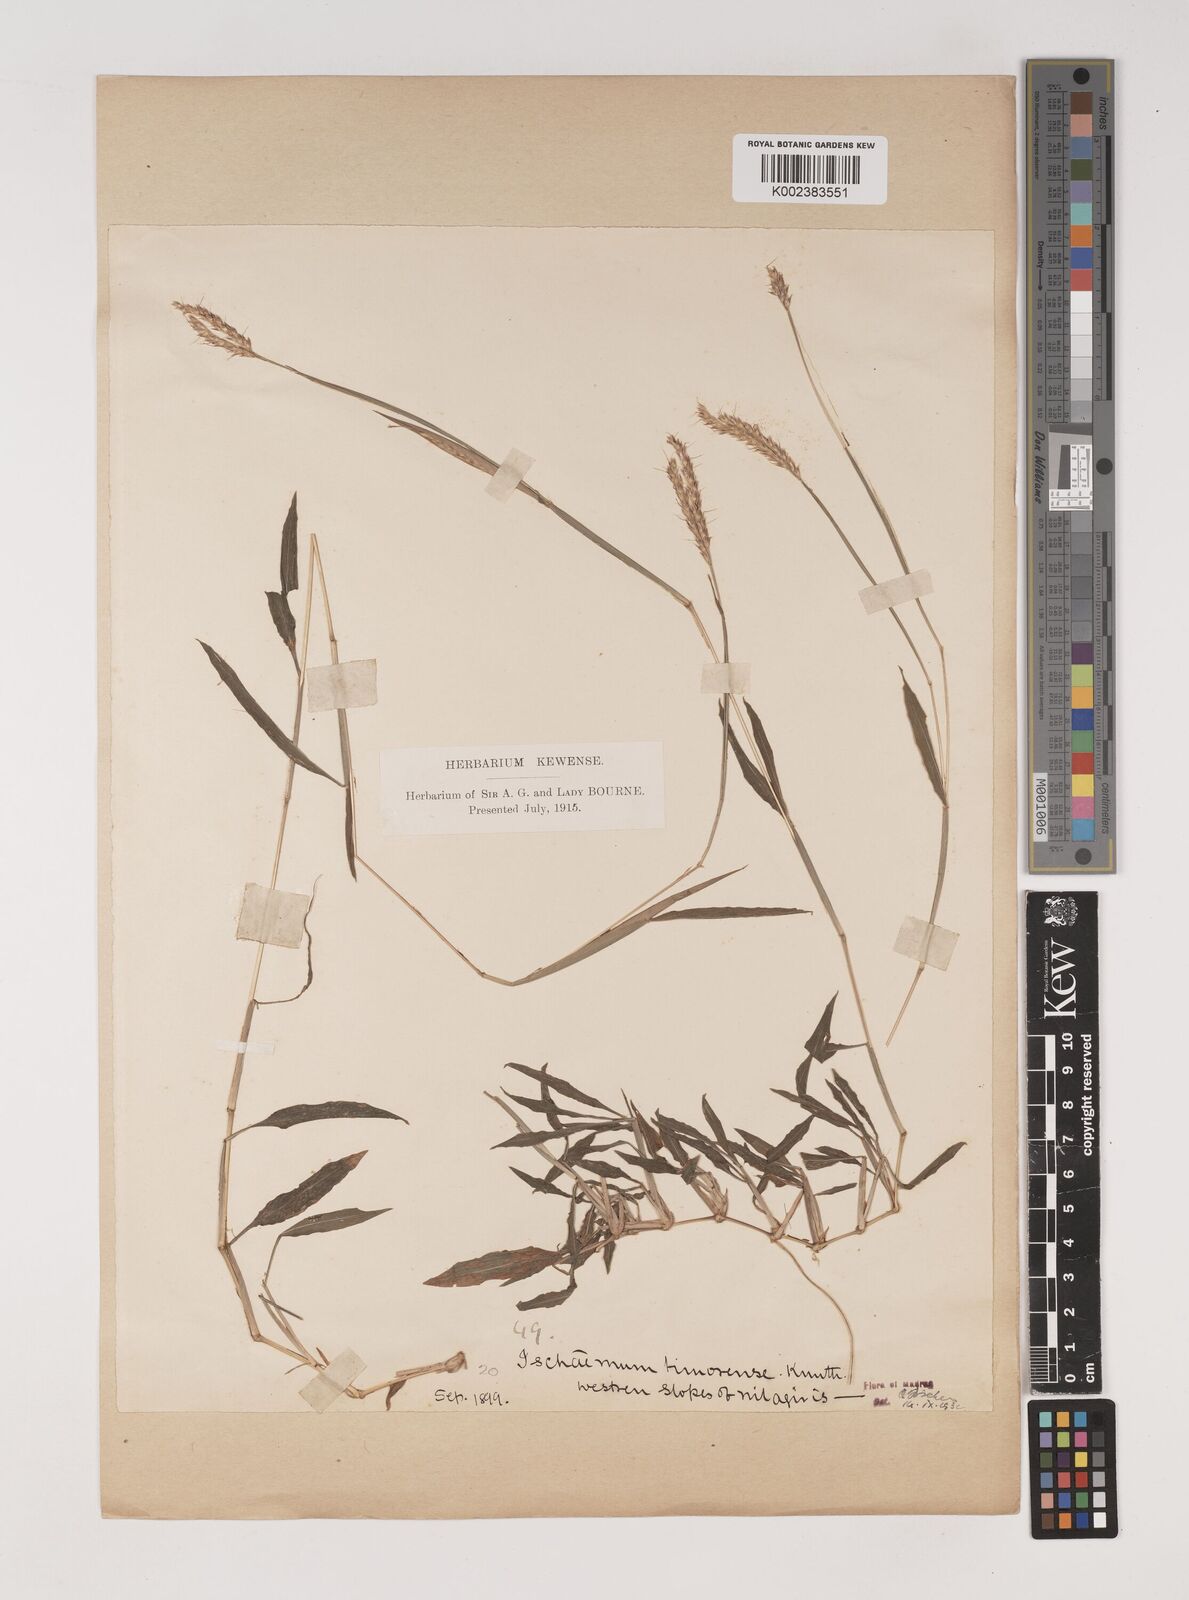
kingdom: Plantae
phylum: Tracheophyta
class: Liliopsida
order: Poales
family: Poaceae
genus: Ischaemum
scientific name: Ischaemum timorense
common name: Stalkleaf murainagrass
